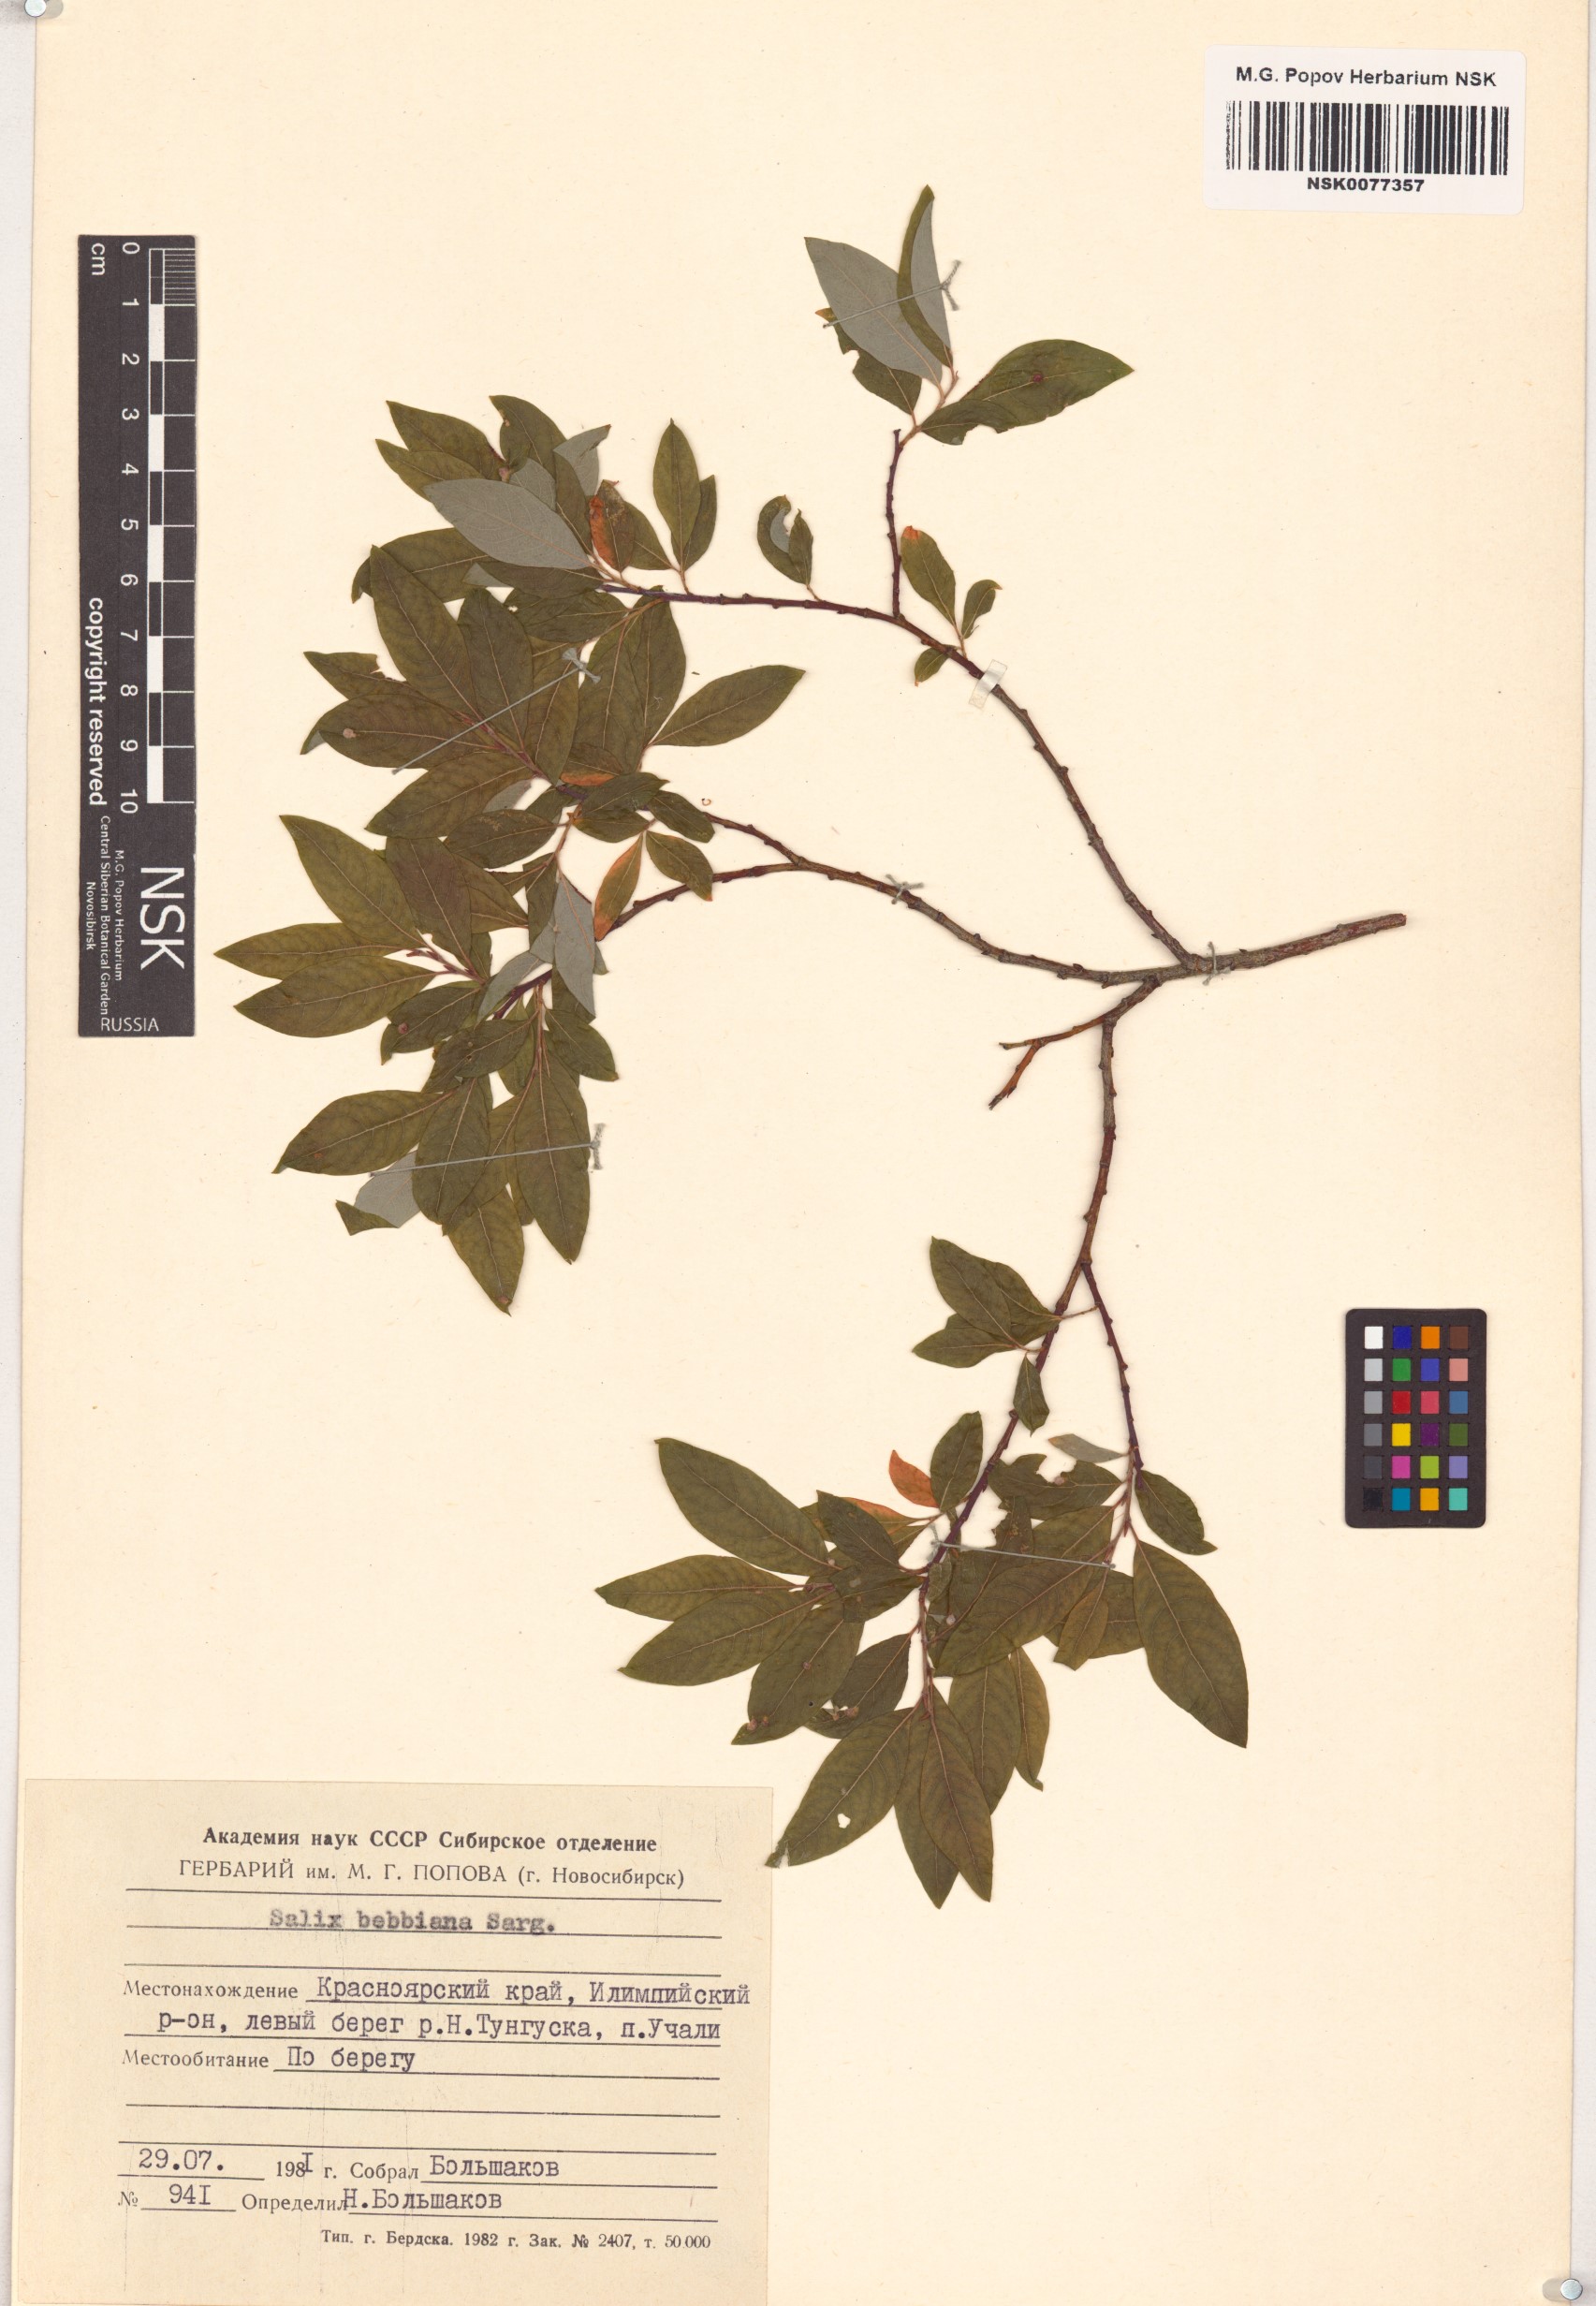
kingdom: Plantae
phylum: Tracheophyta
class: Magnoliopsida
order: Malpighiales
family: Salicaceae
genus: Salix
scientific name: Salix bebbiana
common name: Bebb's willow
